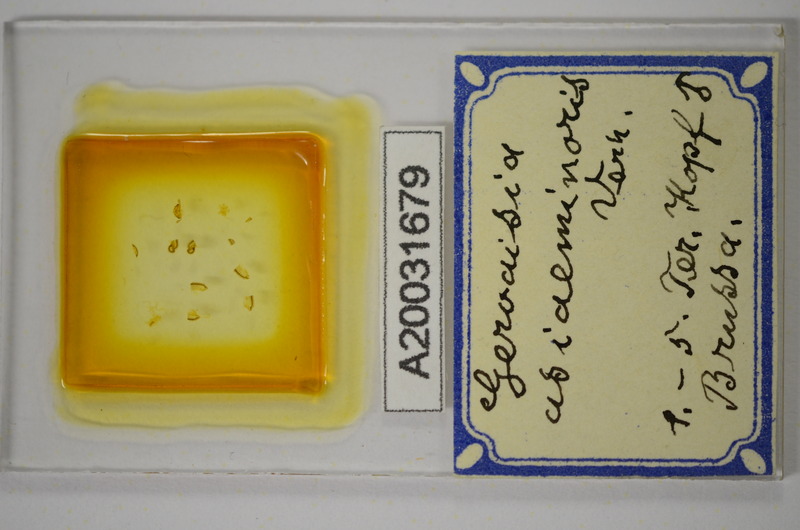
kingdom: Animalia
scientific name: Animalia
